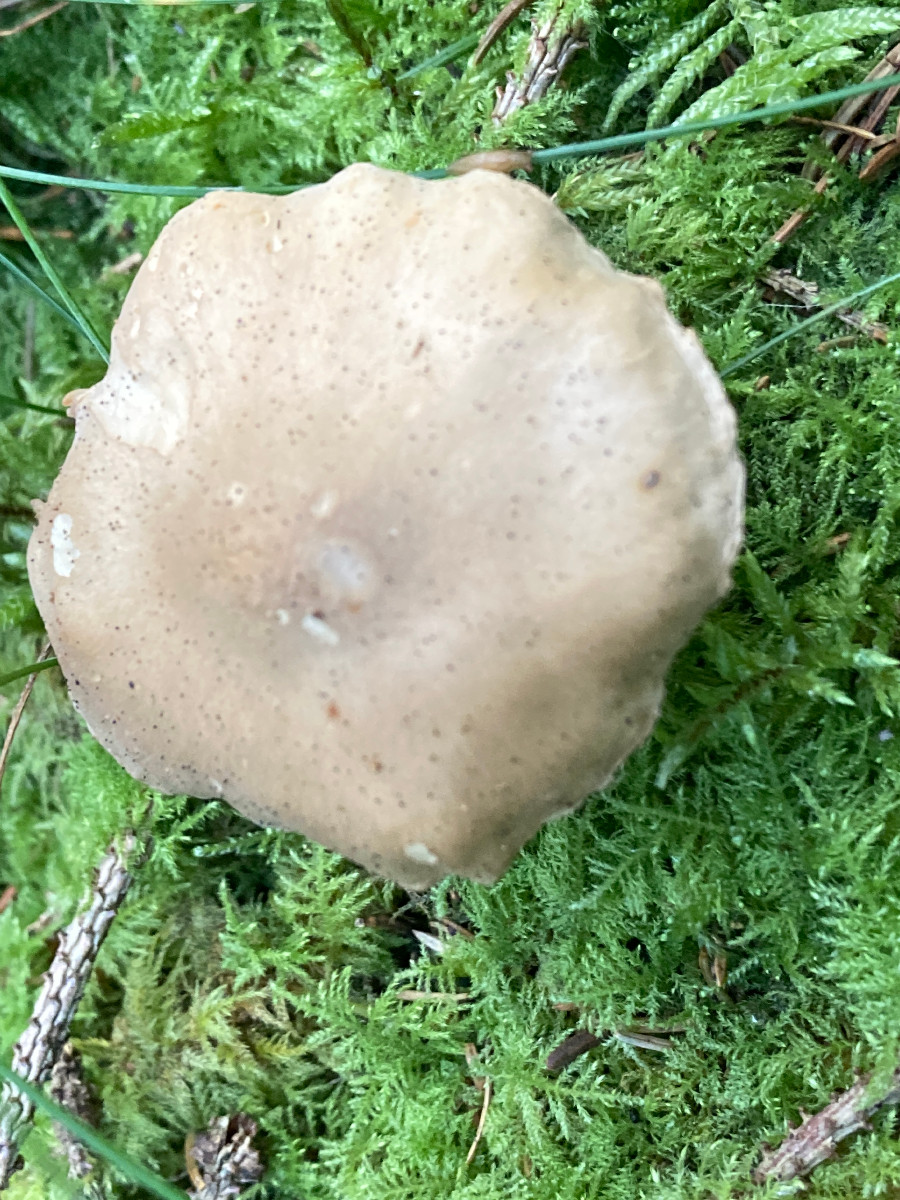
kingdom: Fungi
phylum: Basidiomycota
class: Agaricomycetes
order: Agaricales
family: Tricholomataceae
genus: Tricholoma
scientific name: Tricholoma inamoenum
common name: højstokket ridderhat
